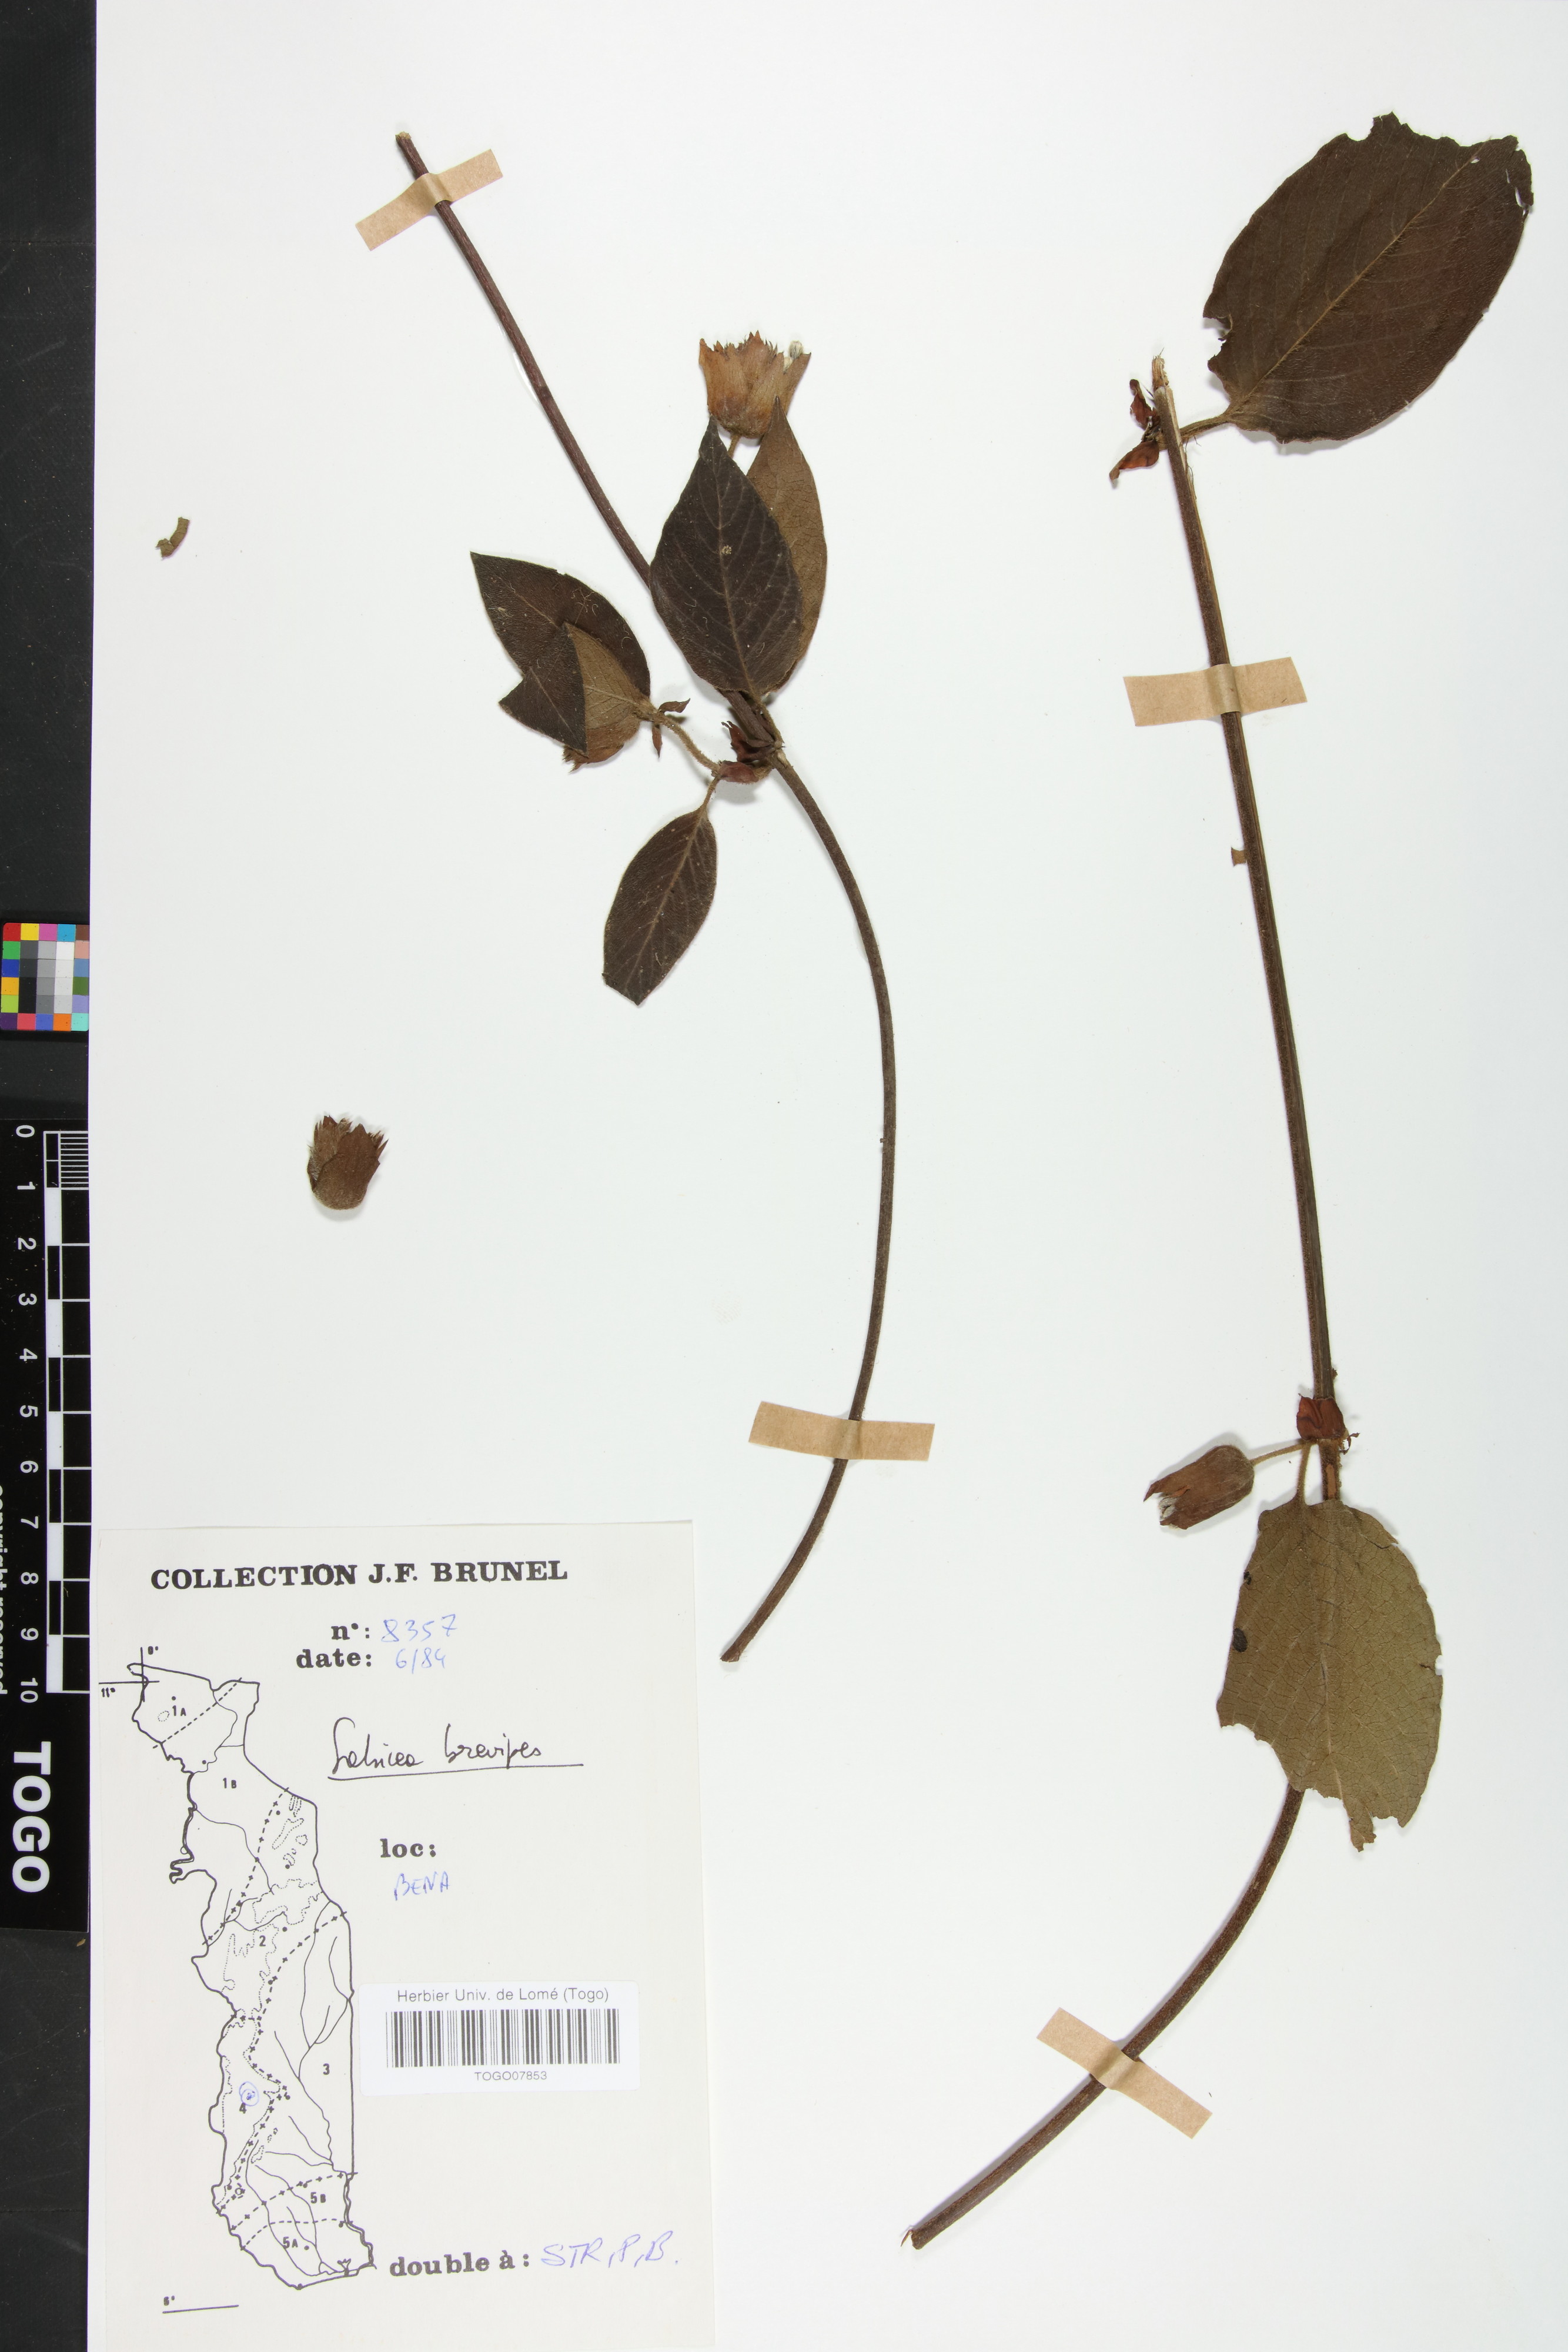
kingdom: Plantae
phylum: Tracheophyta
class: Magnoliopsida
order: Gentianales
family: Rubiaceae
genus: Sabicea
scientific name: Sabicea brevipes
